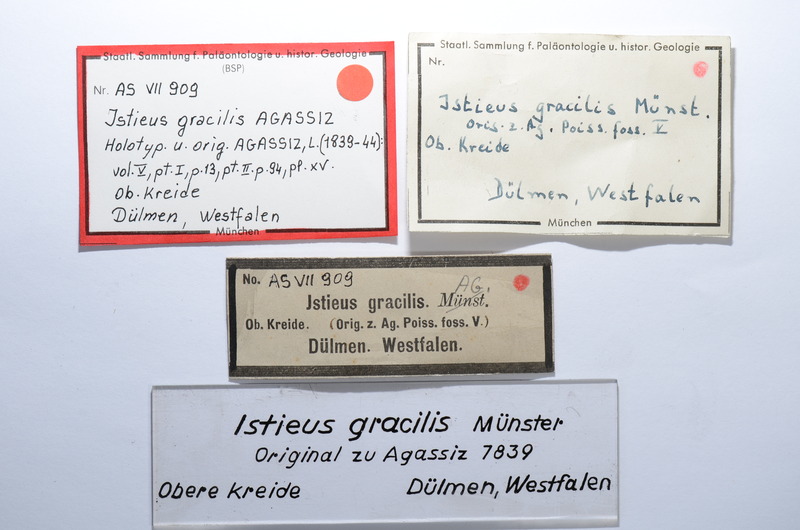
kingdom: Animalia
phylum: Chordata
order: Albuliformes
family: Albulidae
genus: Istieus
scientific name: Istieus gracilis
